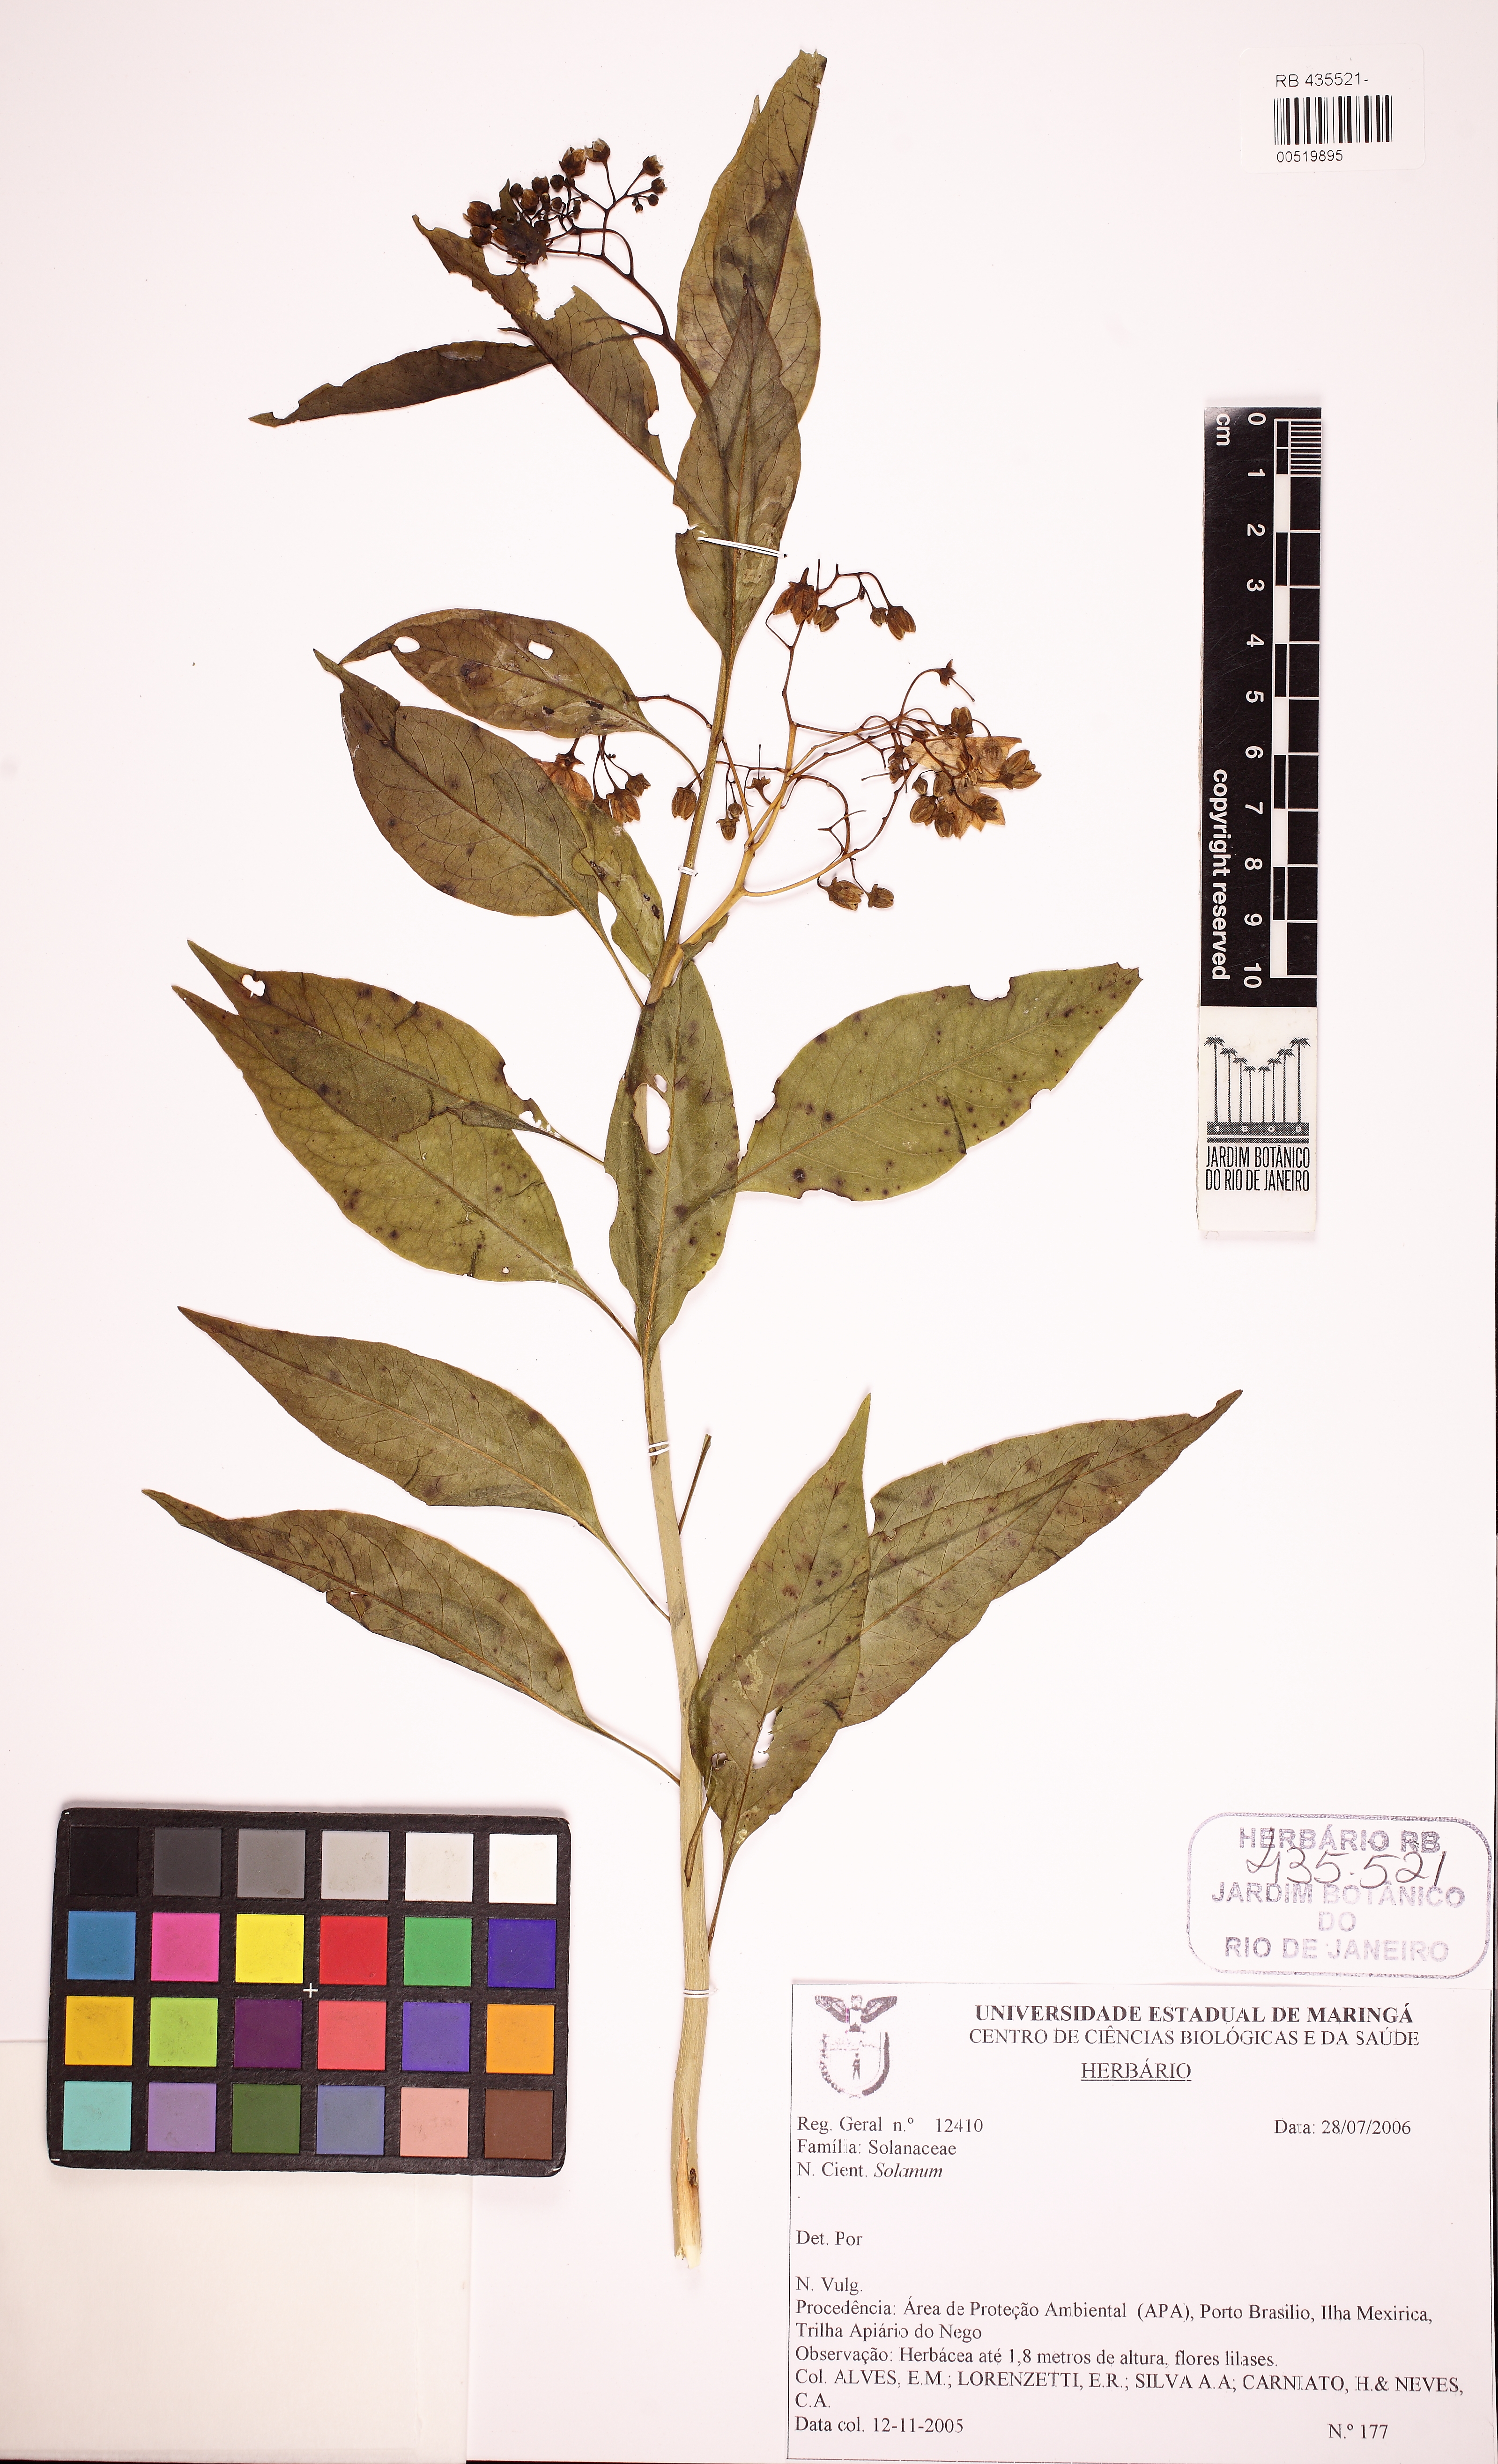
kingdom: Plantae
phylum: Tracheophyta
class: Magnoliopsida
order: Solanales
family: Solanaceae
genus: Solanum
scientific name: Solanum glaucophyllum
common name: Waxyleaf nightshade
